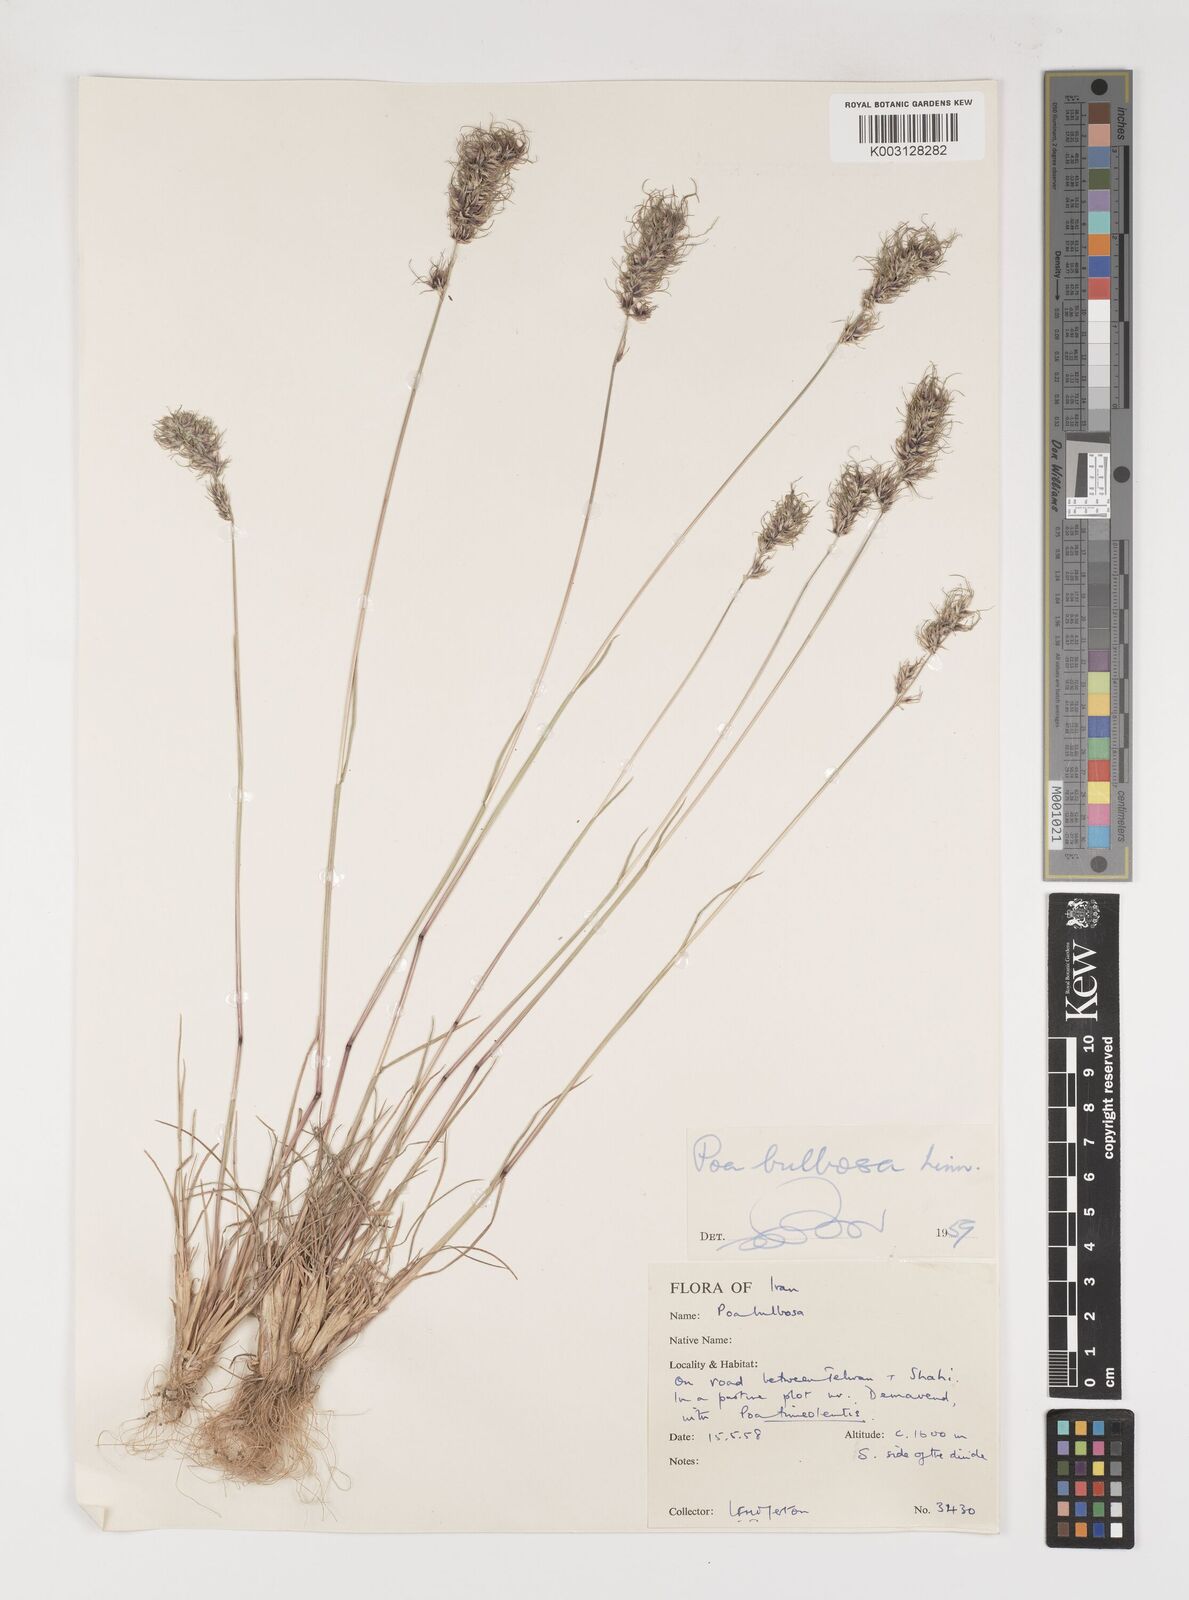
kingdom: Plantae
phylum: Tracheophyta
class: Liliopsida
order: Poales
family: Poaceae
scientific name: Poaceae
